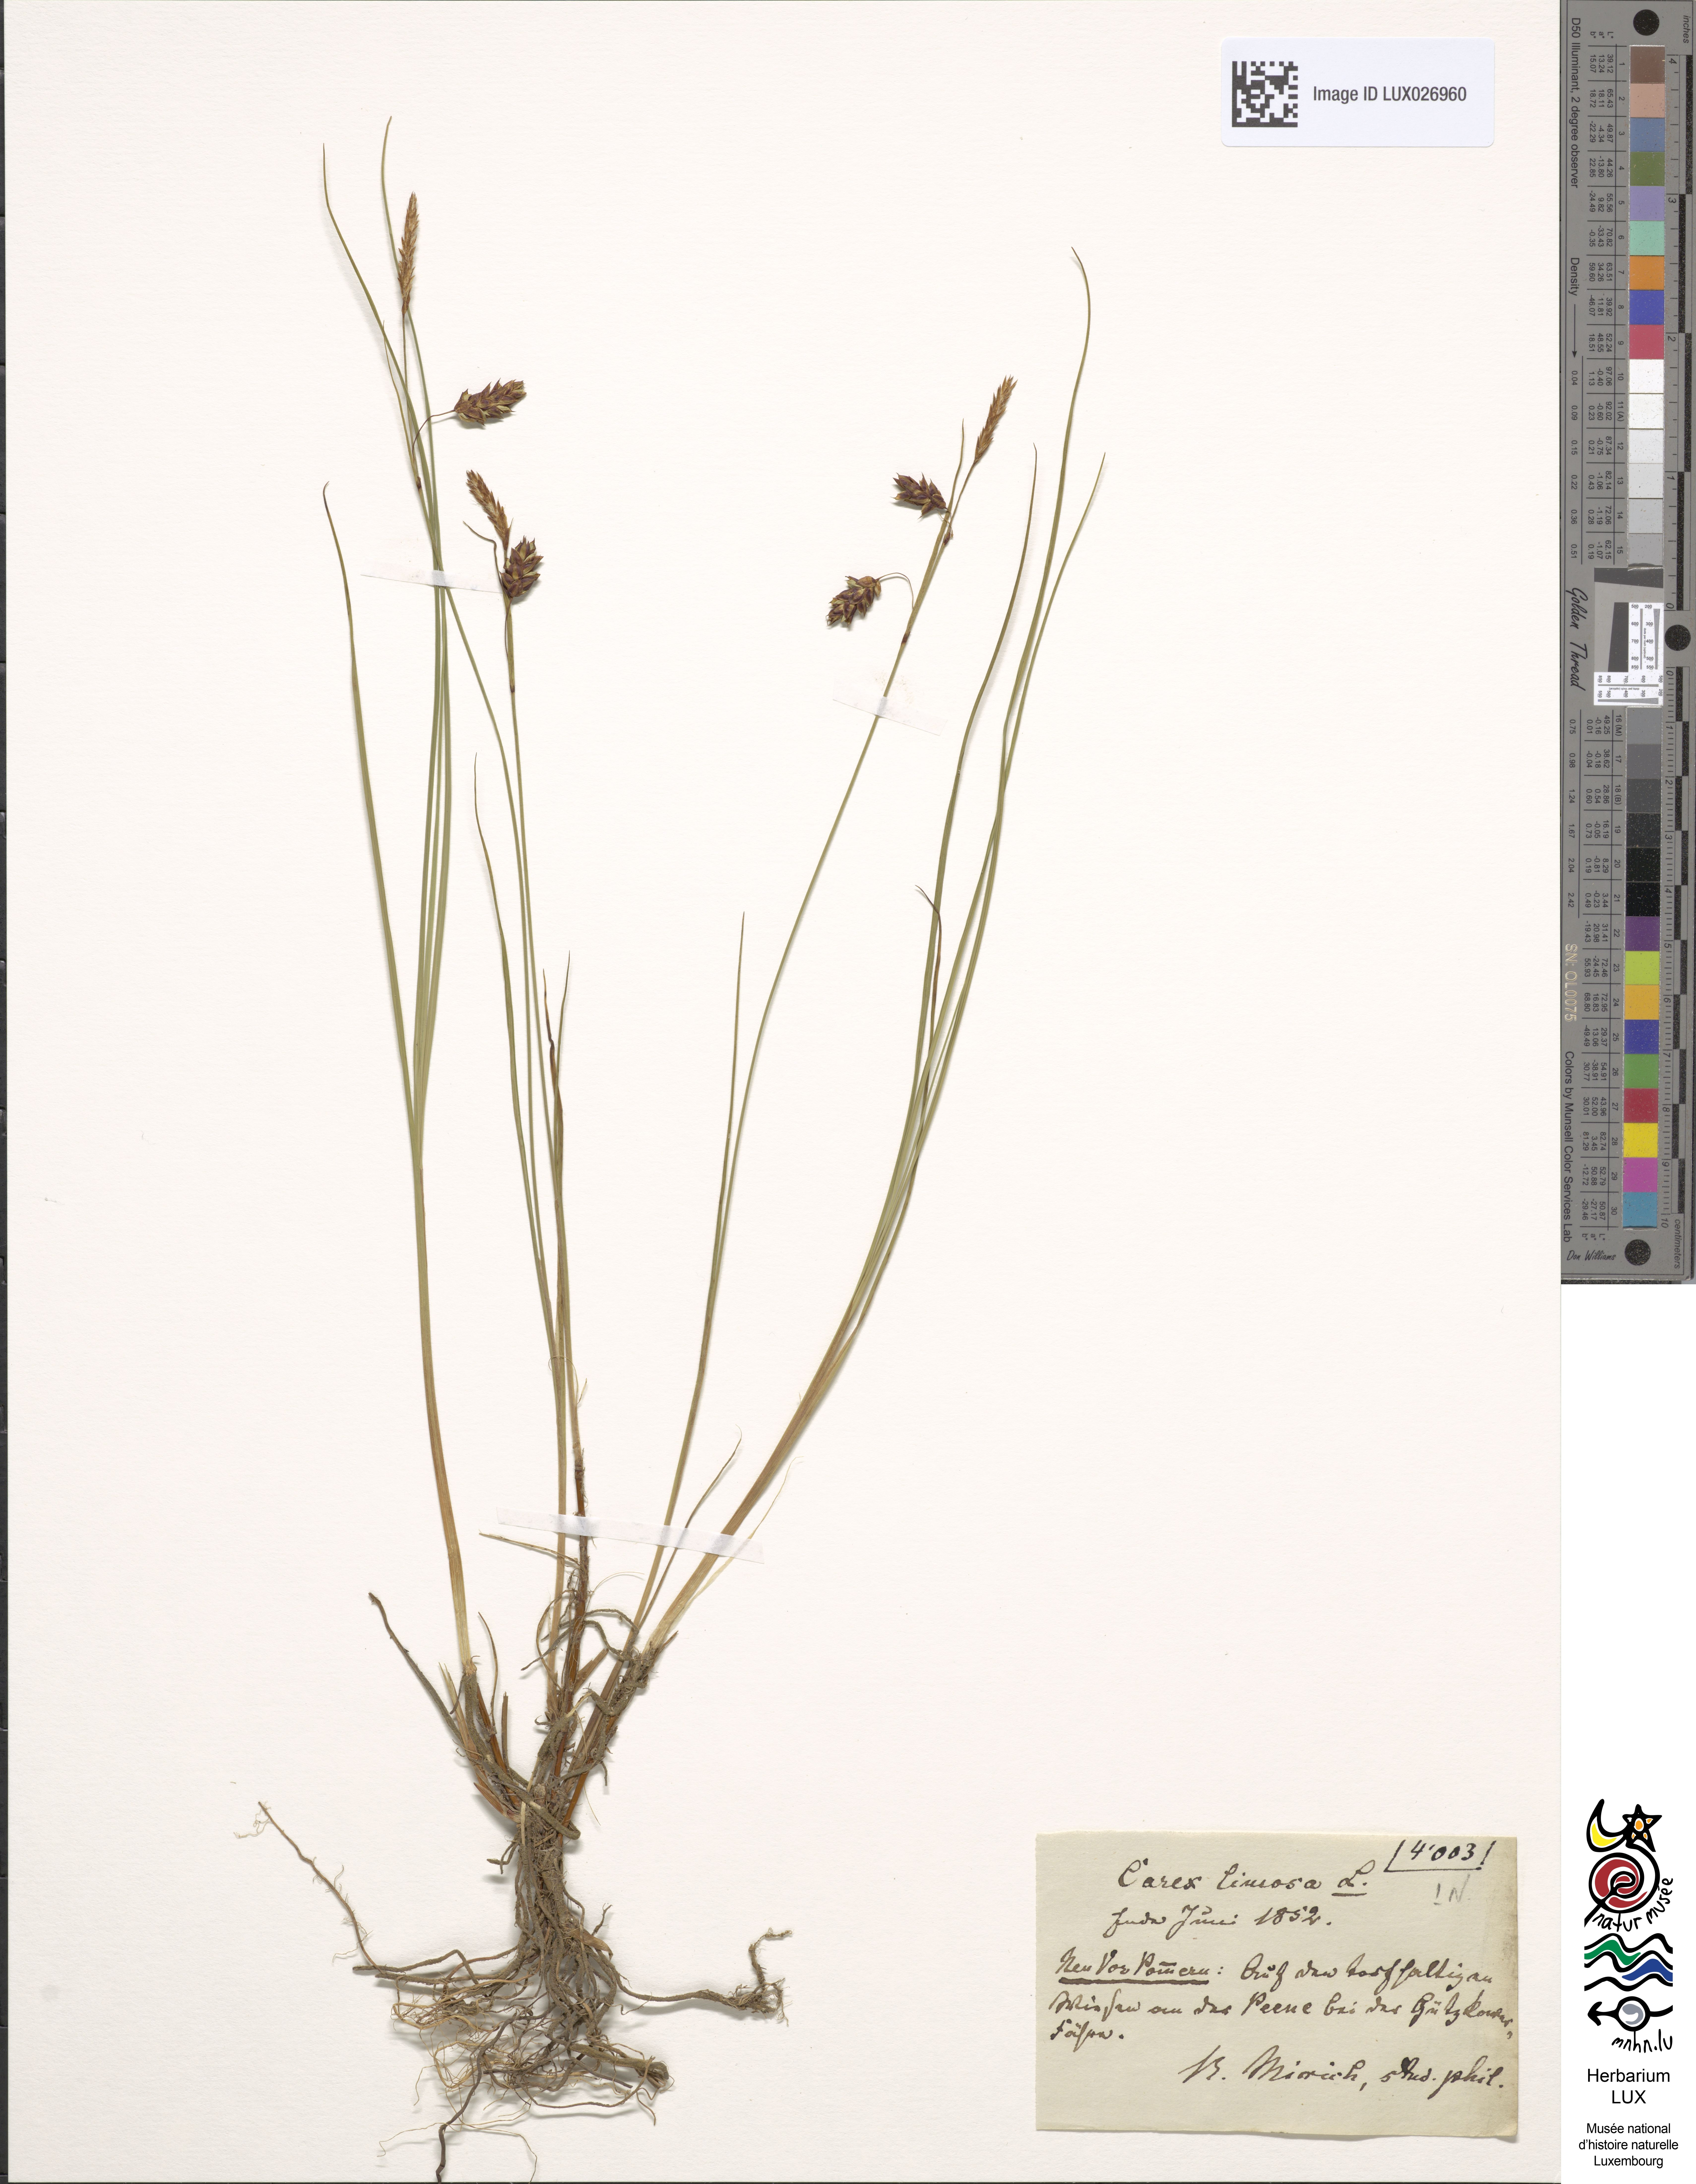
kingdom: Plantae
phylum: Tracheophyta
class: Liliopsida
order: Poales
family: Cyperaceae
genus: Carex
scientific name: Carex limosa
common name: Bog sedge
